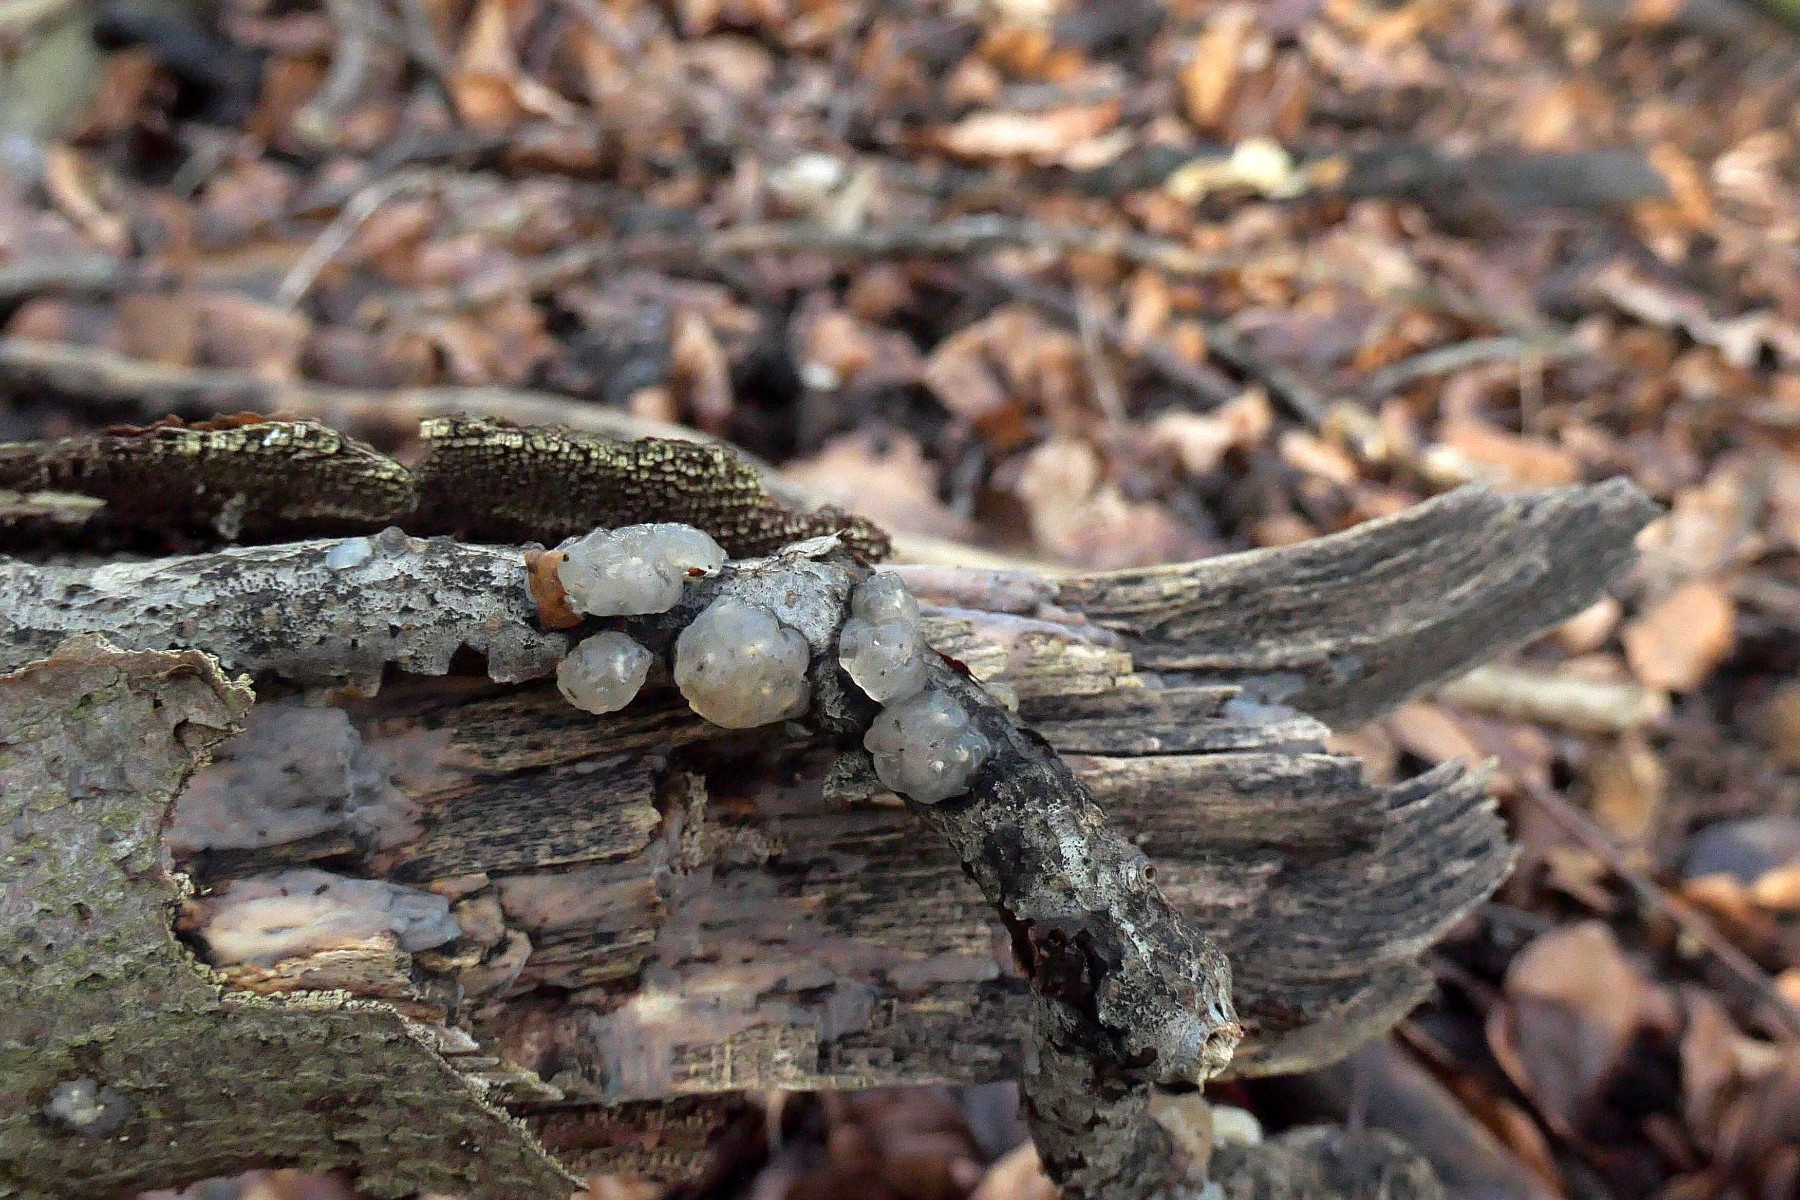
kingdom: Fungi
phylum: Basidiomycota
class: Agaricomycetes
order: Auriculariales
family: Hyaloriaceae
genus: Myxarium
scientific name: Myxarium nucleatum
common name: klar bævretop
